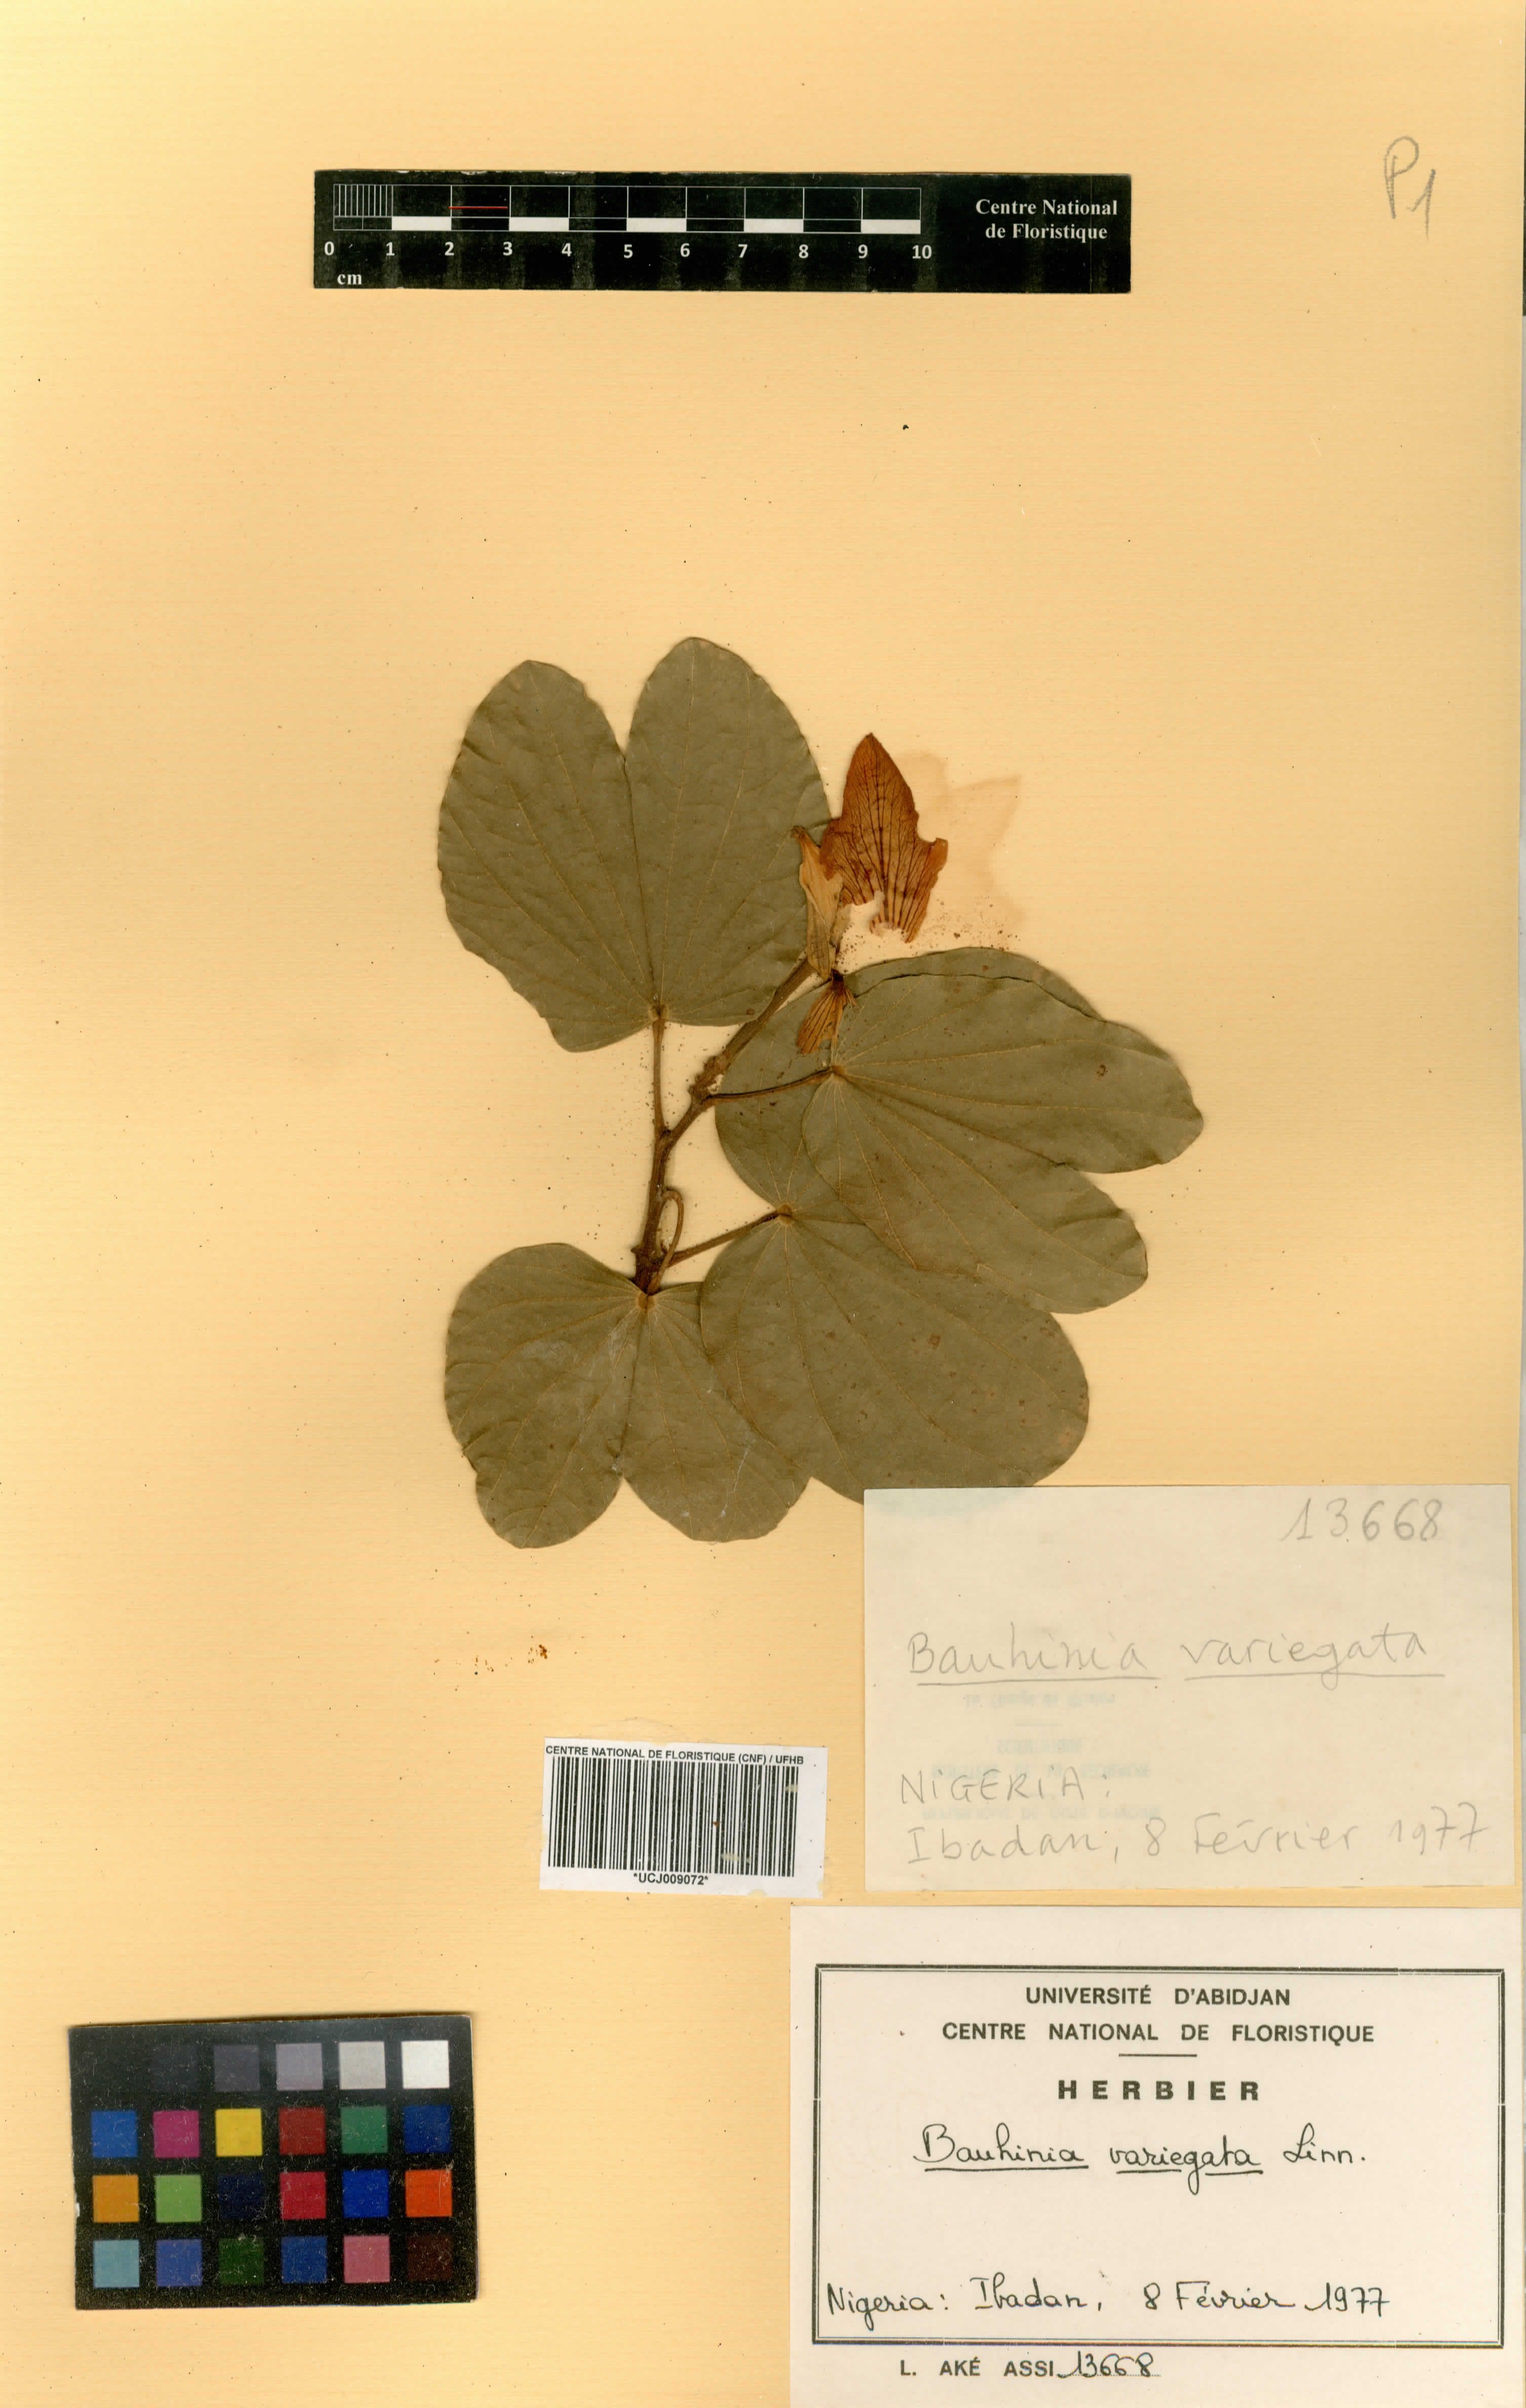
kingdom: Plantae
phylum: Tracheophyta
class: Magnoliopsida
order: Fabales
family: Fabaceae
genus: Bauhinia
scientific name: Bauhinia variegata
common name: Mountain ebony
